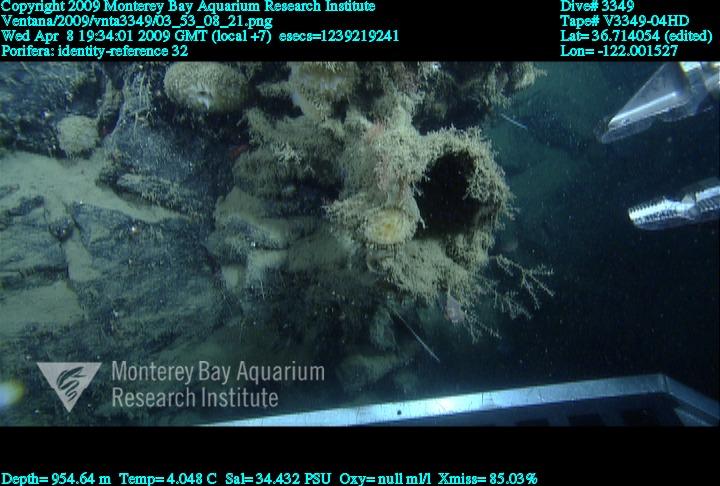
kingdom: Animalia
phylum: Porifera
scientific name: Porifera
